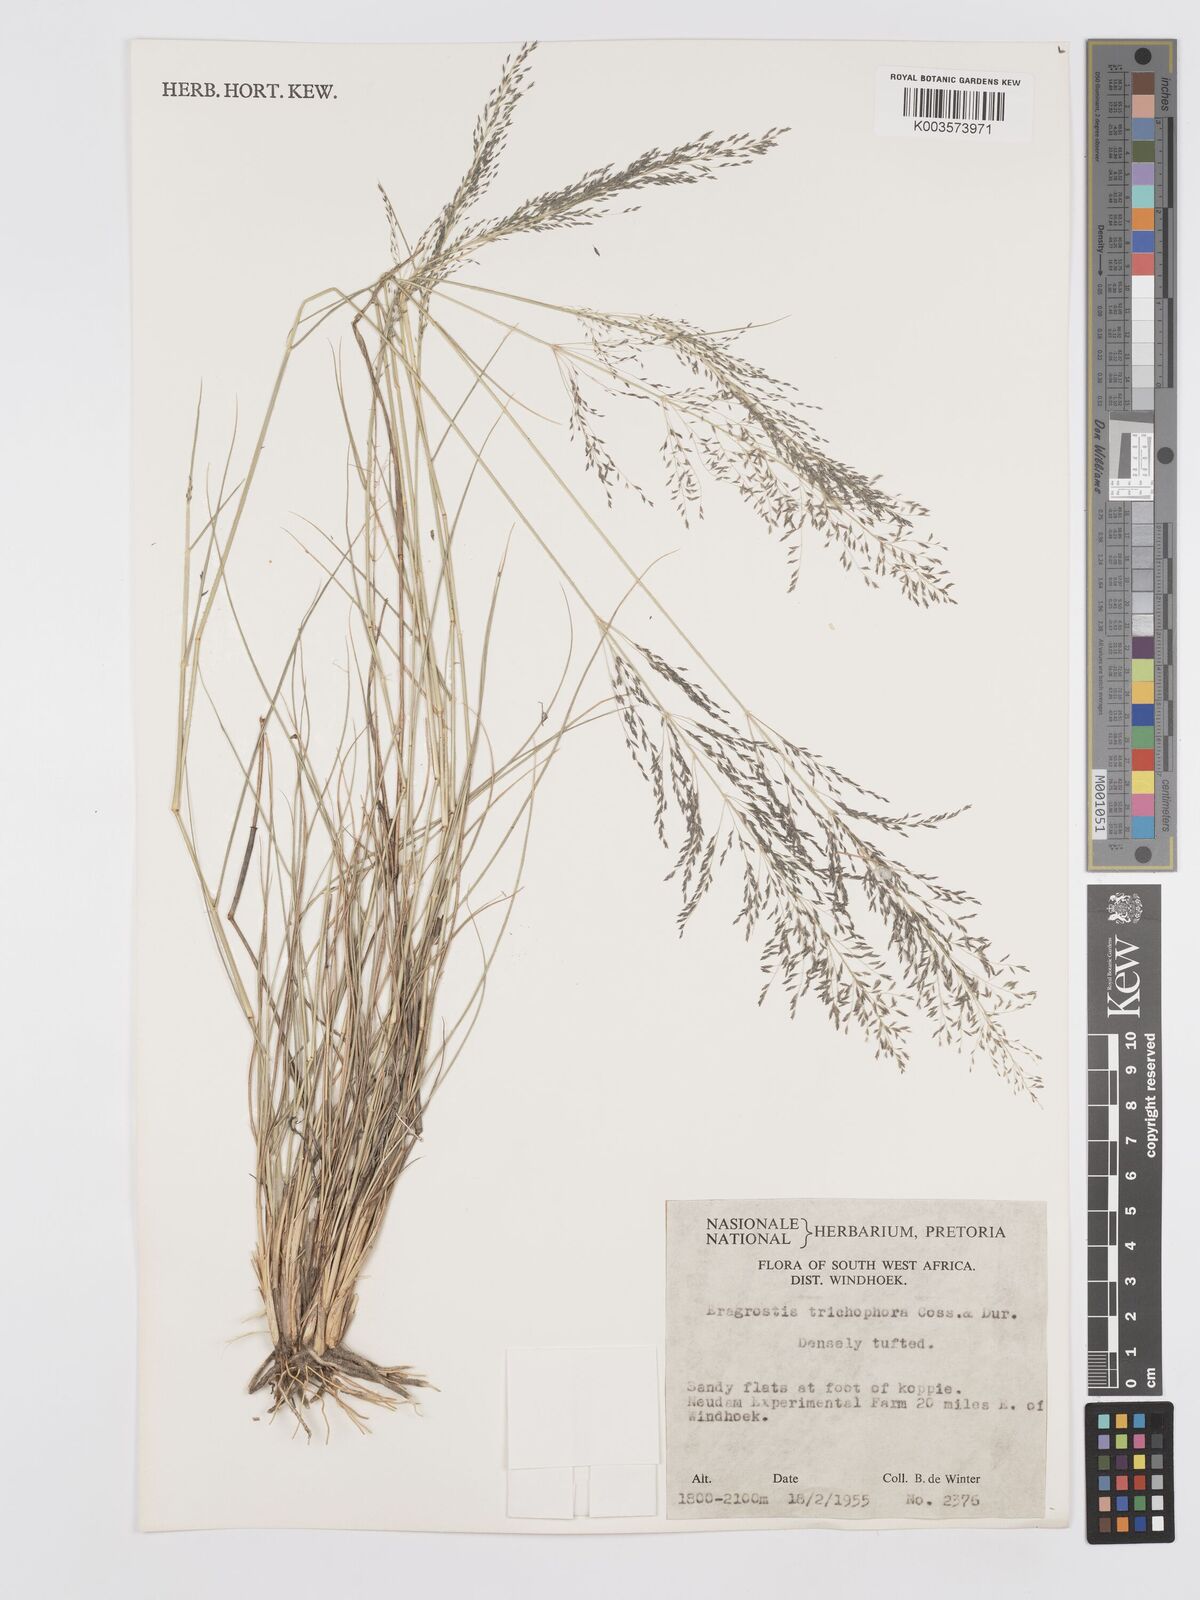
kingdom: Plantae
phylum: Tracheophyta
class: Liliopsida
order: Poales
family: Poaceae
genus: Eragrostis
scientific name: Eragrostis cylindriflora
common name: Cylinderflower lovegrass
